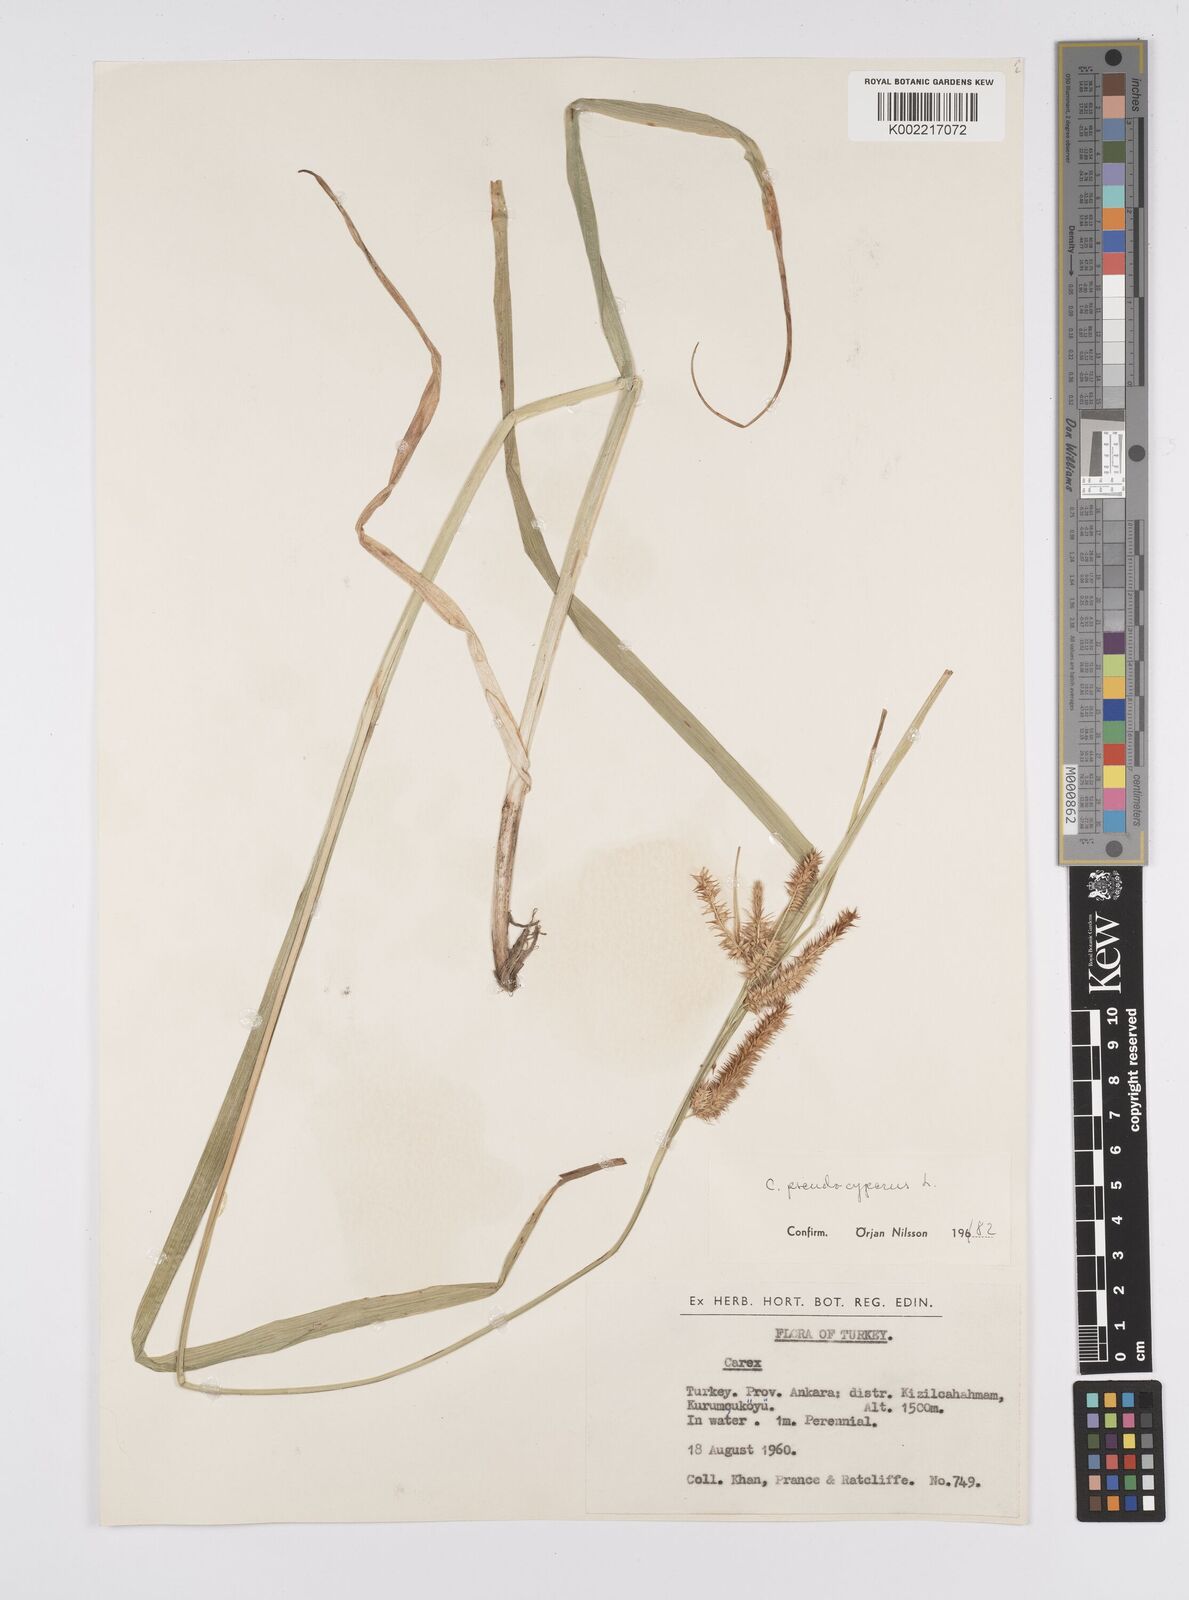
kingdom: Plantae
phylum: Tracheophyta
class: Liliopsida
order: Poales
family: Cyperaceae
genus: Carex
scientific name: Carex pseudocyperus
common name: Cyperus sedge
